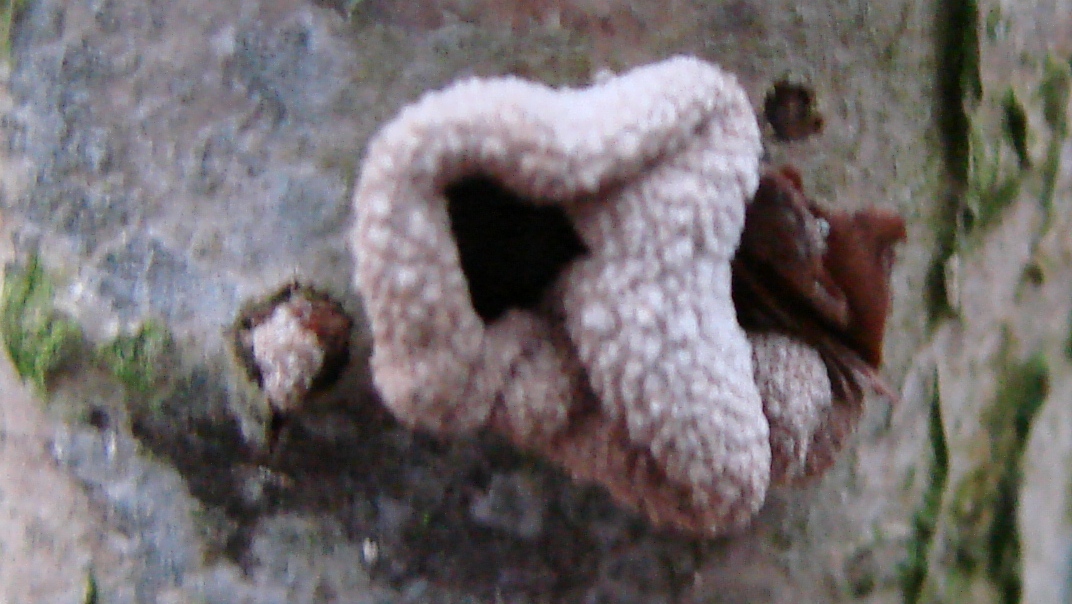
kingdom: Fungi
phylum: Ascomycota
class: Leotiomycetes
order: Helotiales
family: Cenangiaceae
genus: Encoelia
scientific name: Encoelia furfuracea
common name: hassel-læderskive
